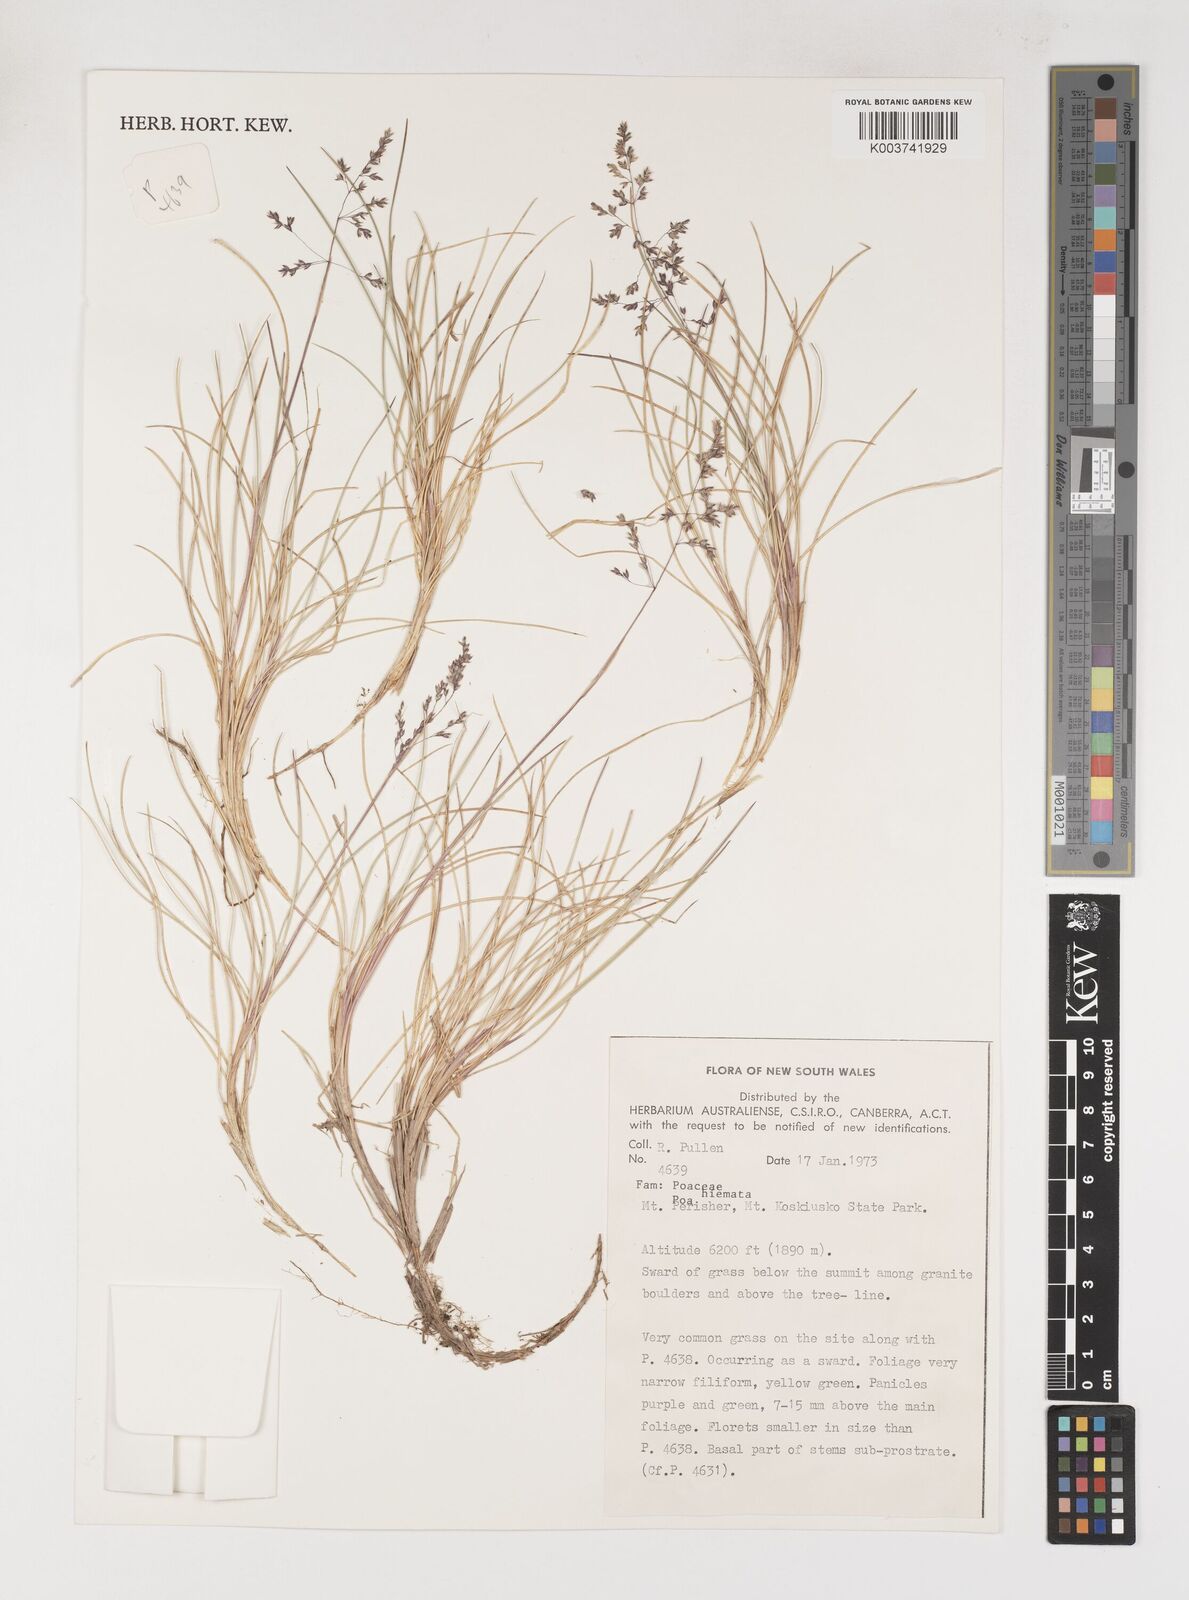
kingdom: Plantae
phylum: Tracheophyta
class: Liliopsida
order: Poales
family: Poaceae
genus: Poa
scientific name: Poa hiemata
